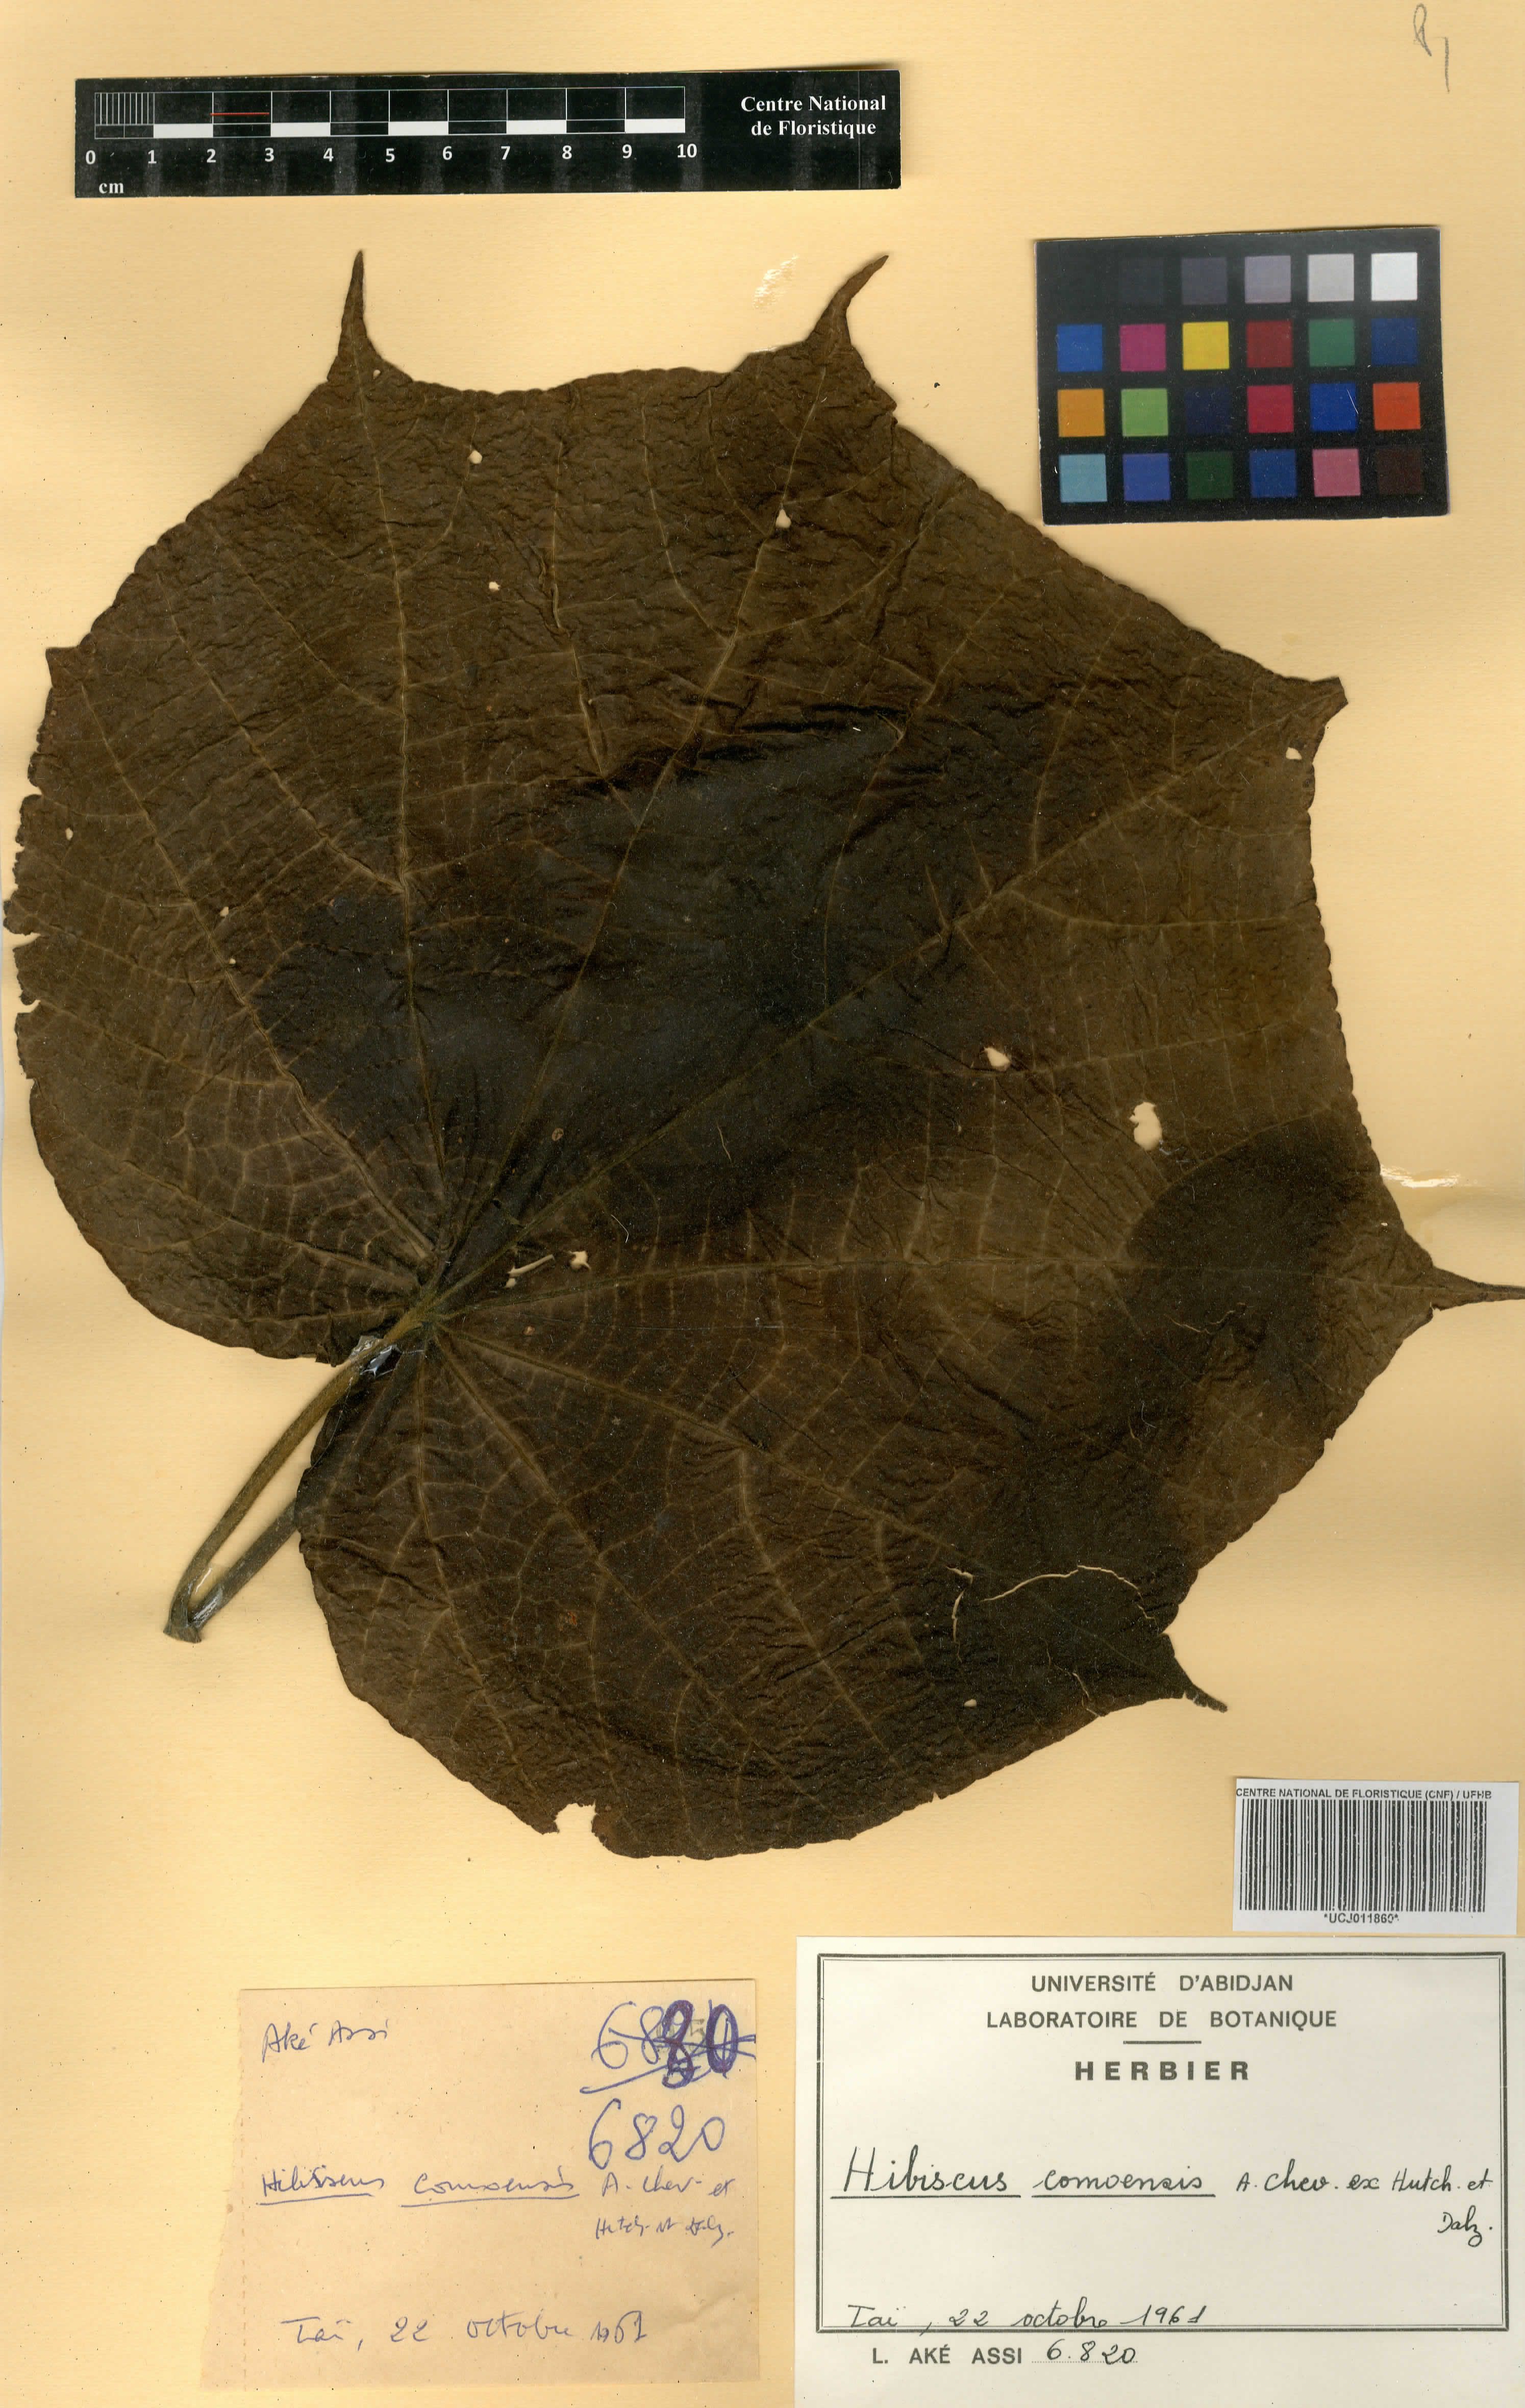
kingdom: Plantae
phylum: Tracheophyta
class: Magnoliopsida
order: Malvales
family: Malvaceae
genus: Hibiscus
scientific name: Hibiscus comoensis
